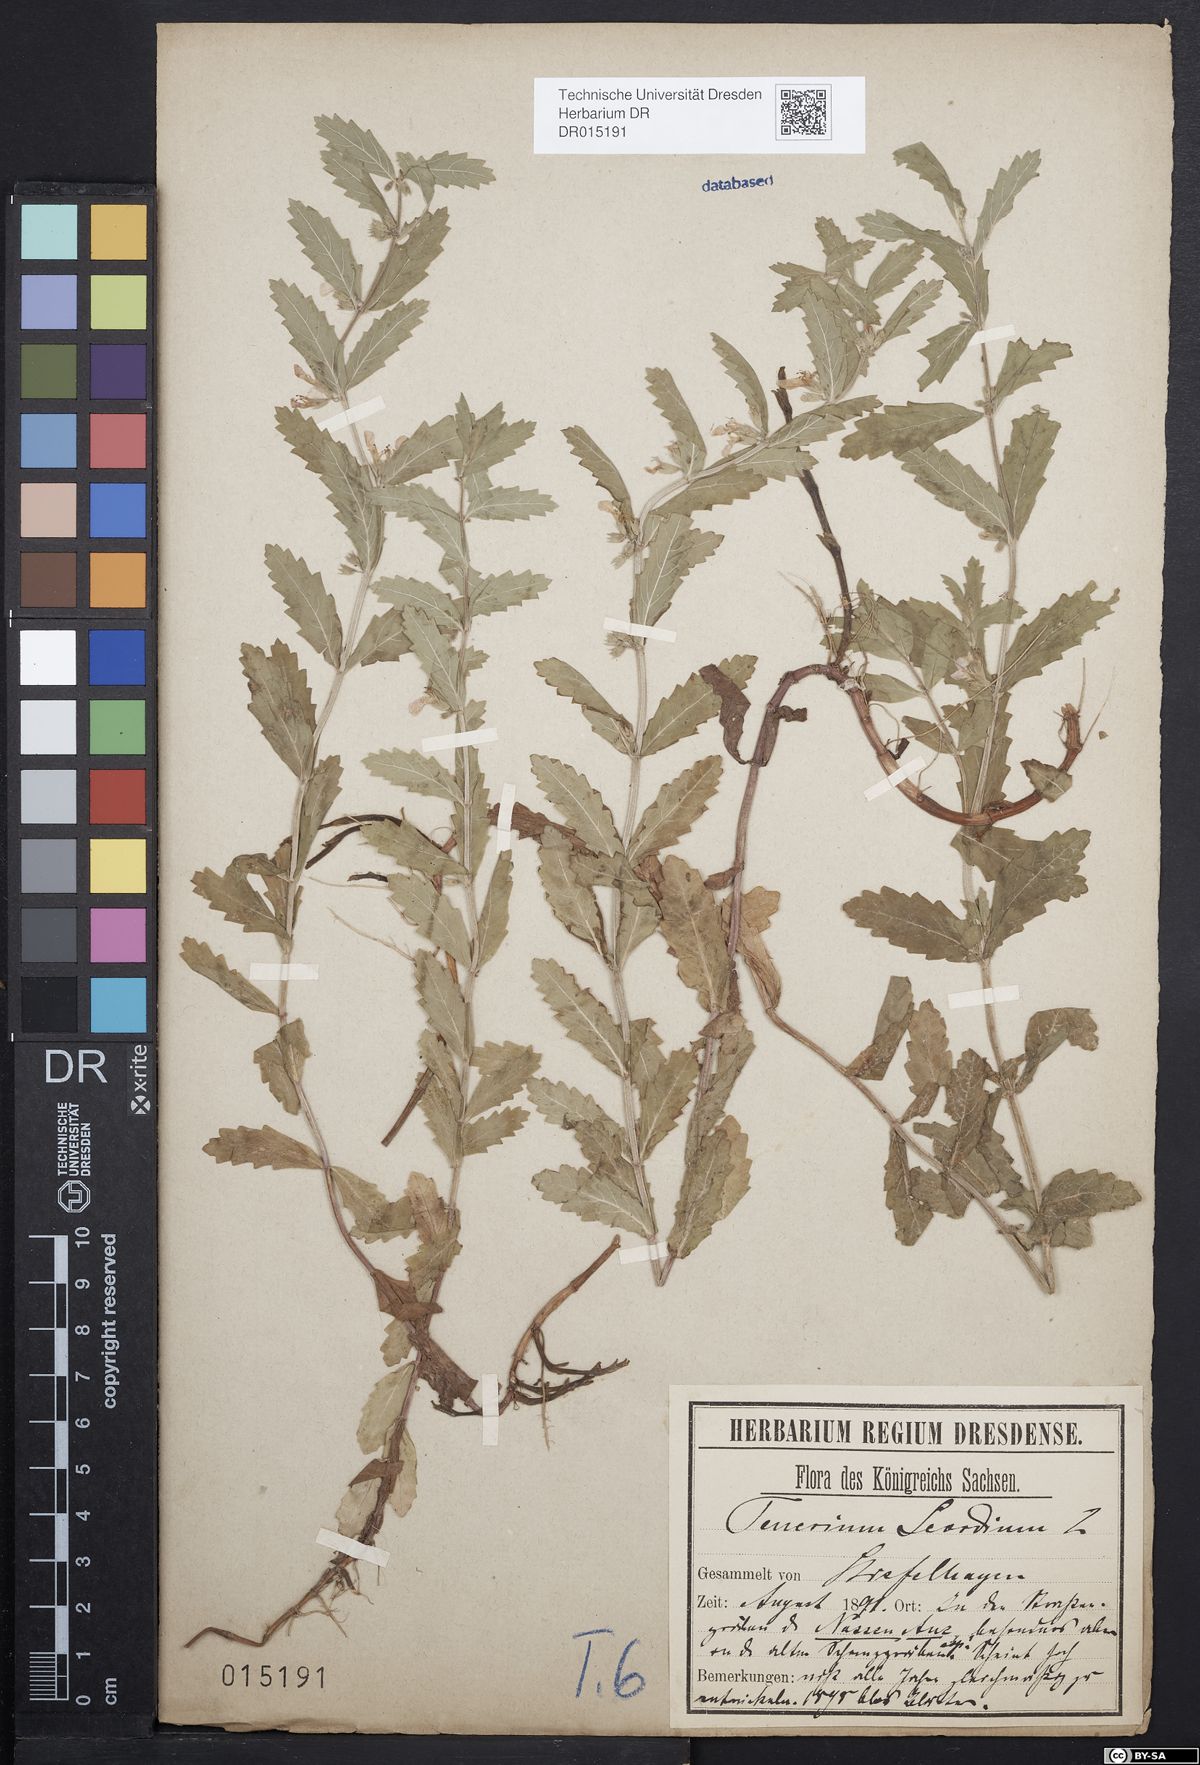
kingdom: Plantae
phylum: Tracheophyta
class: Magnoliopsida
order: Lamiales
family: Lamiaceae
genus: Teucrium
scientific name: Teucrium scordium
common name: Water germander
